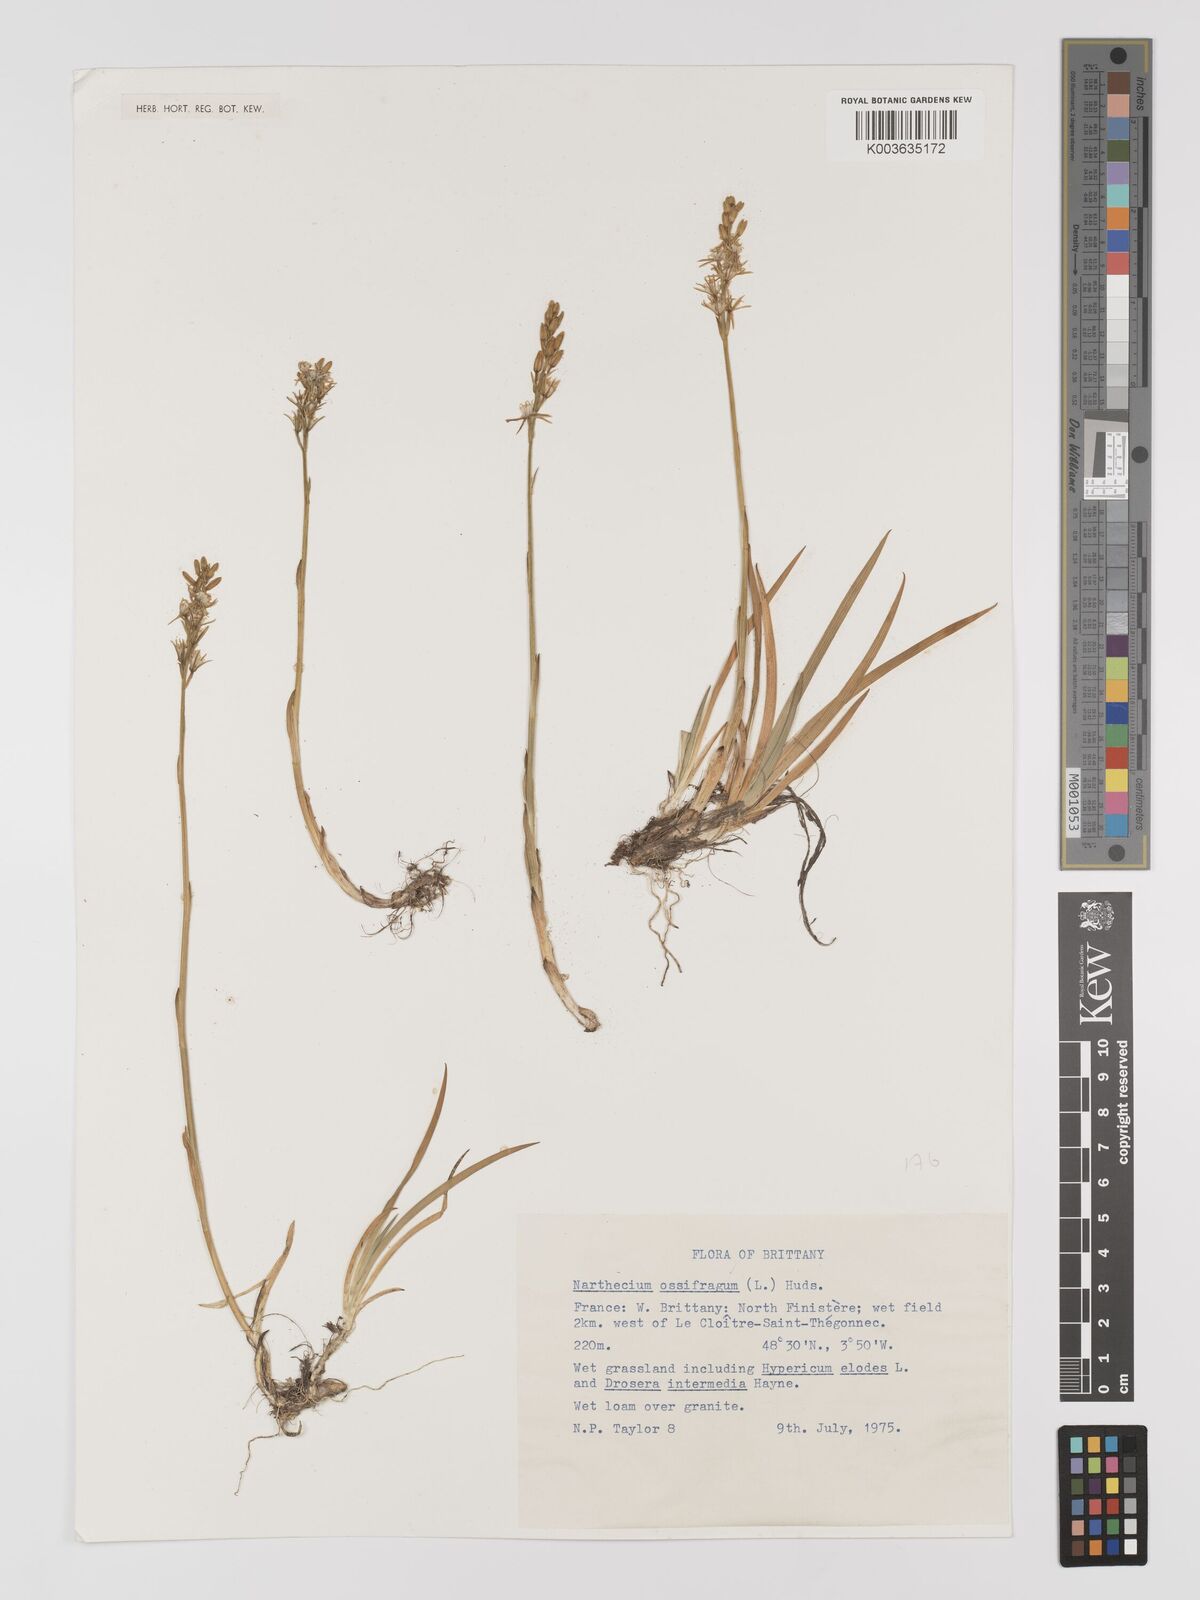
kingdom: Plantae
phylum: Tracheophyta
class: Liliopsida
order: Dioscoreales
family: Nartheciaceae
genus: Narthecium
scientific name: Narthecium ossifragum
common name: Bog asphodel
